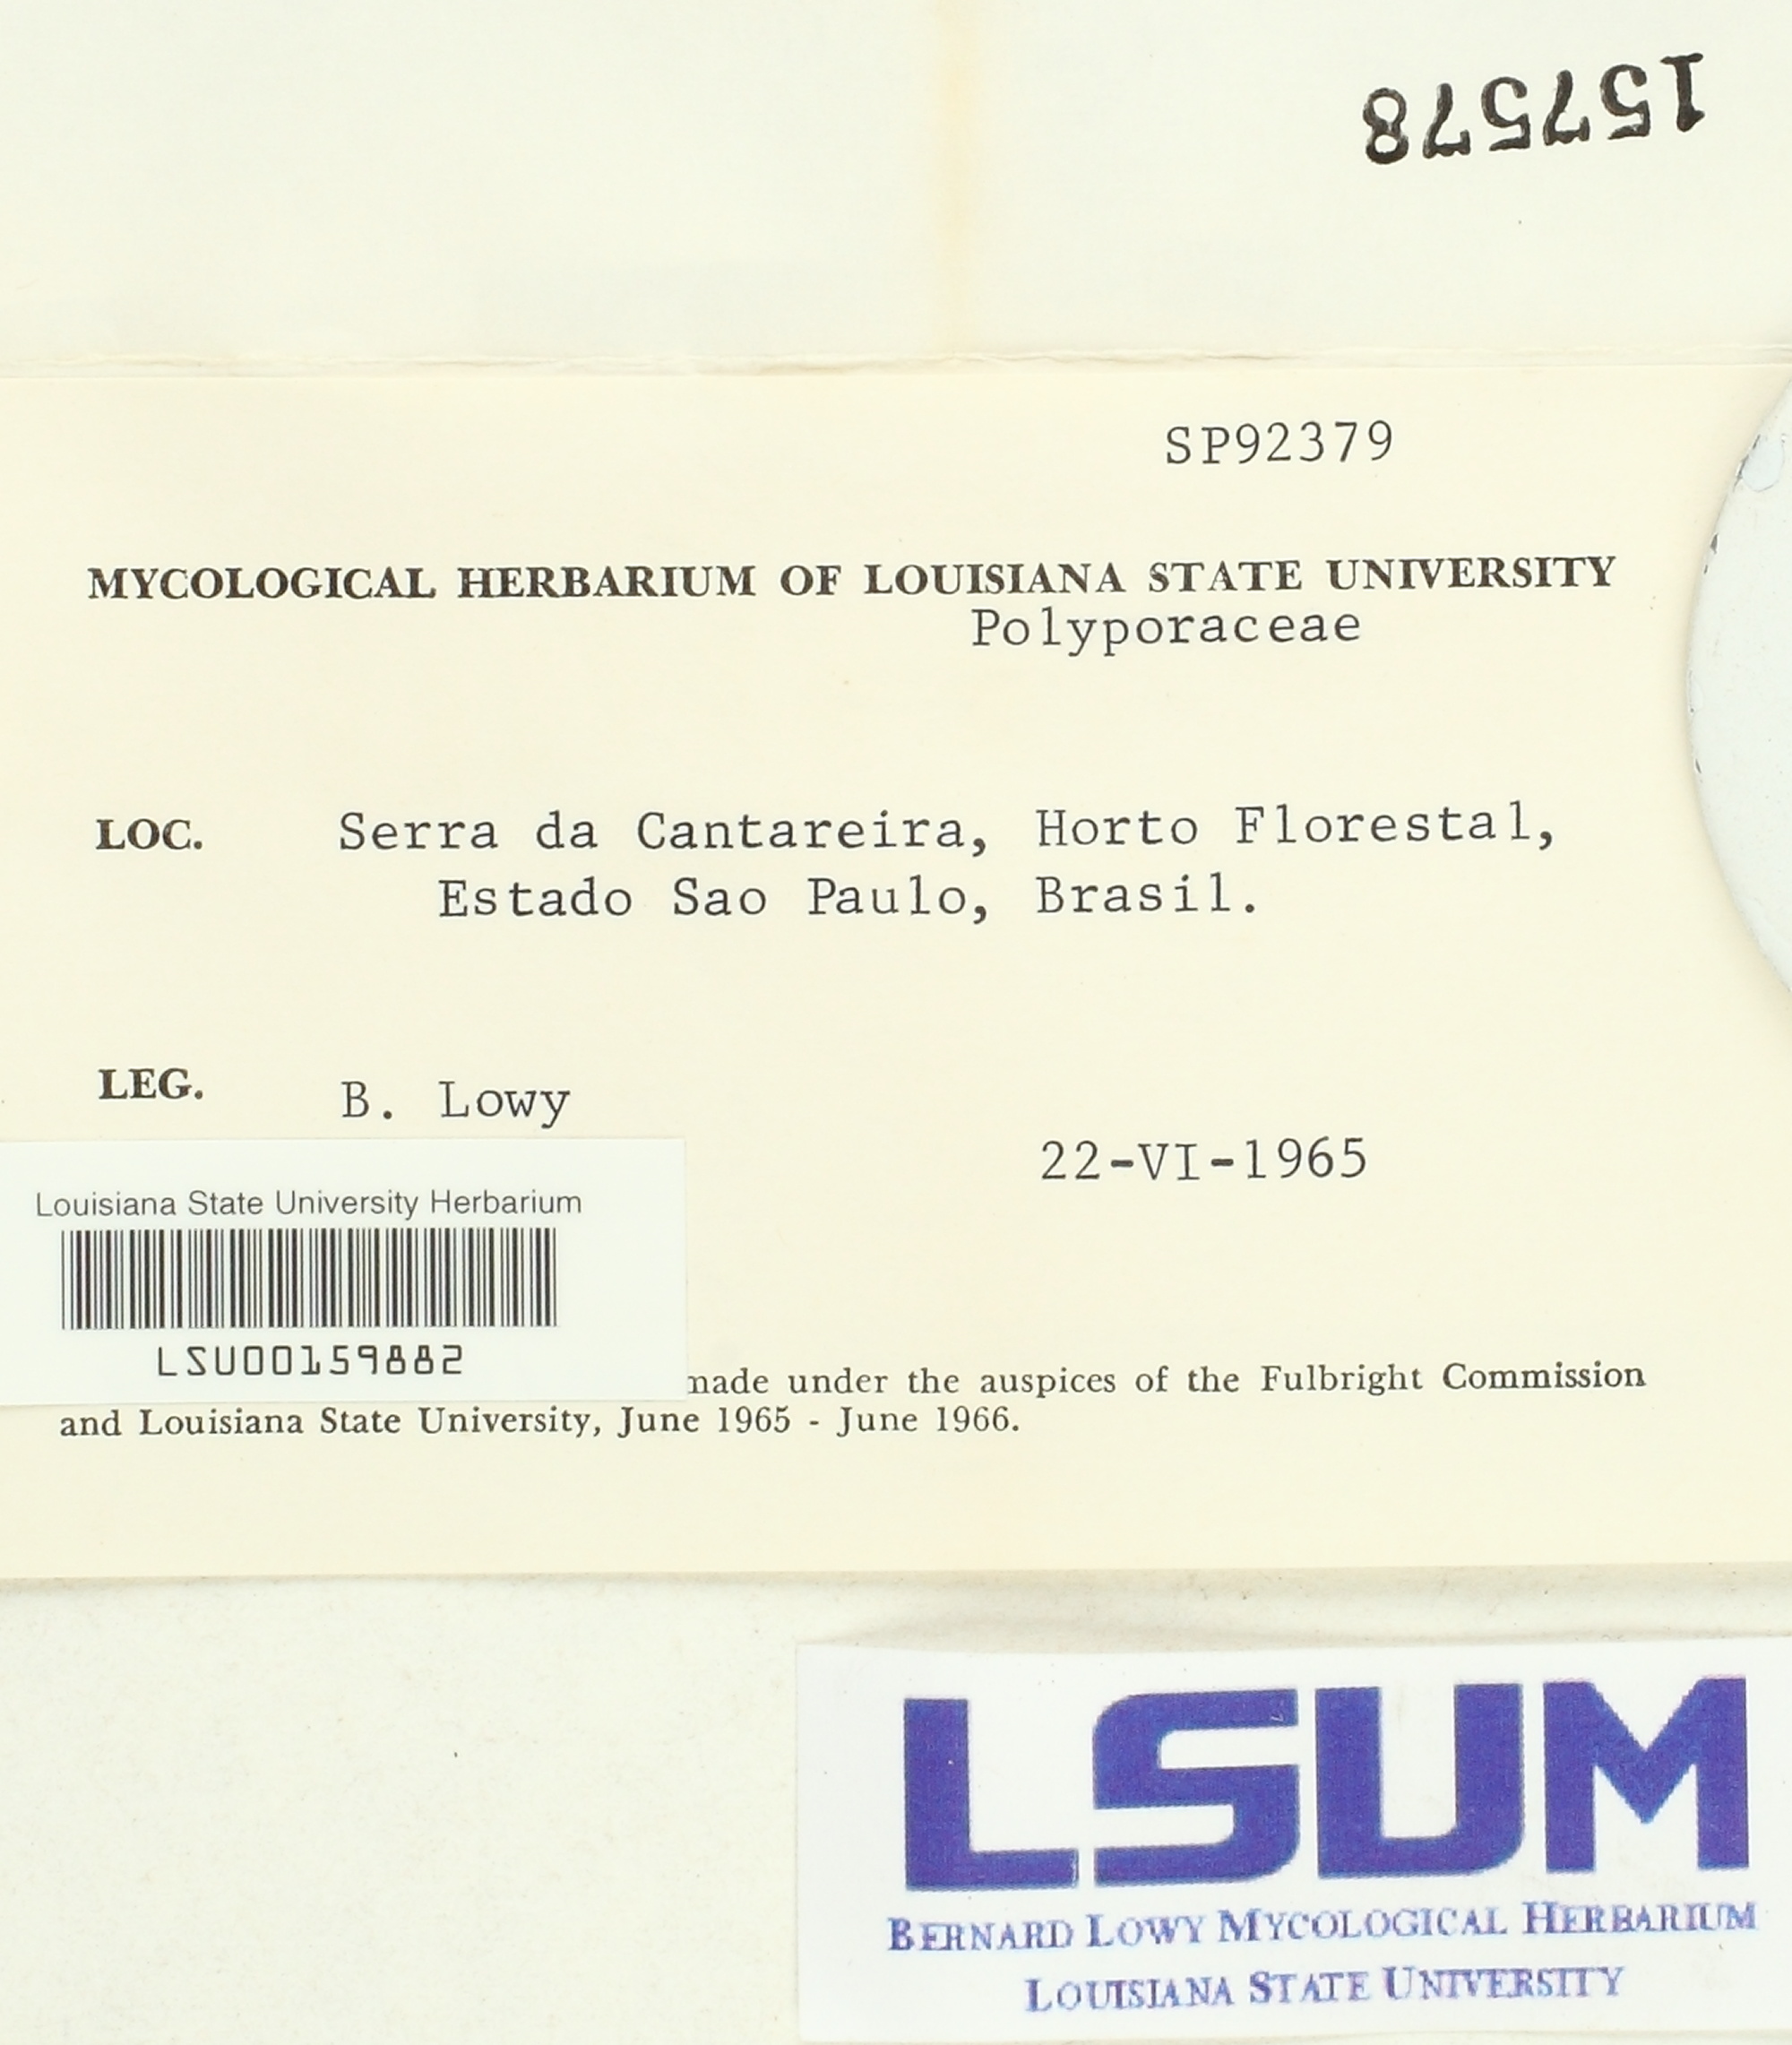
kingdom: Fungi
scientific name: Fungi
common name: Fungi
